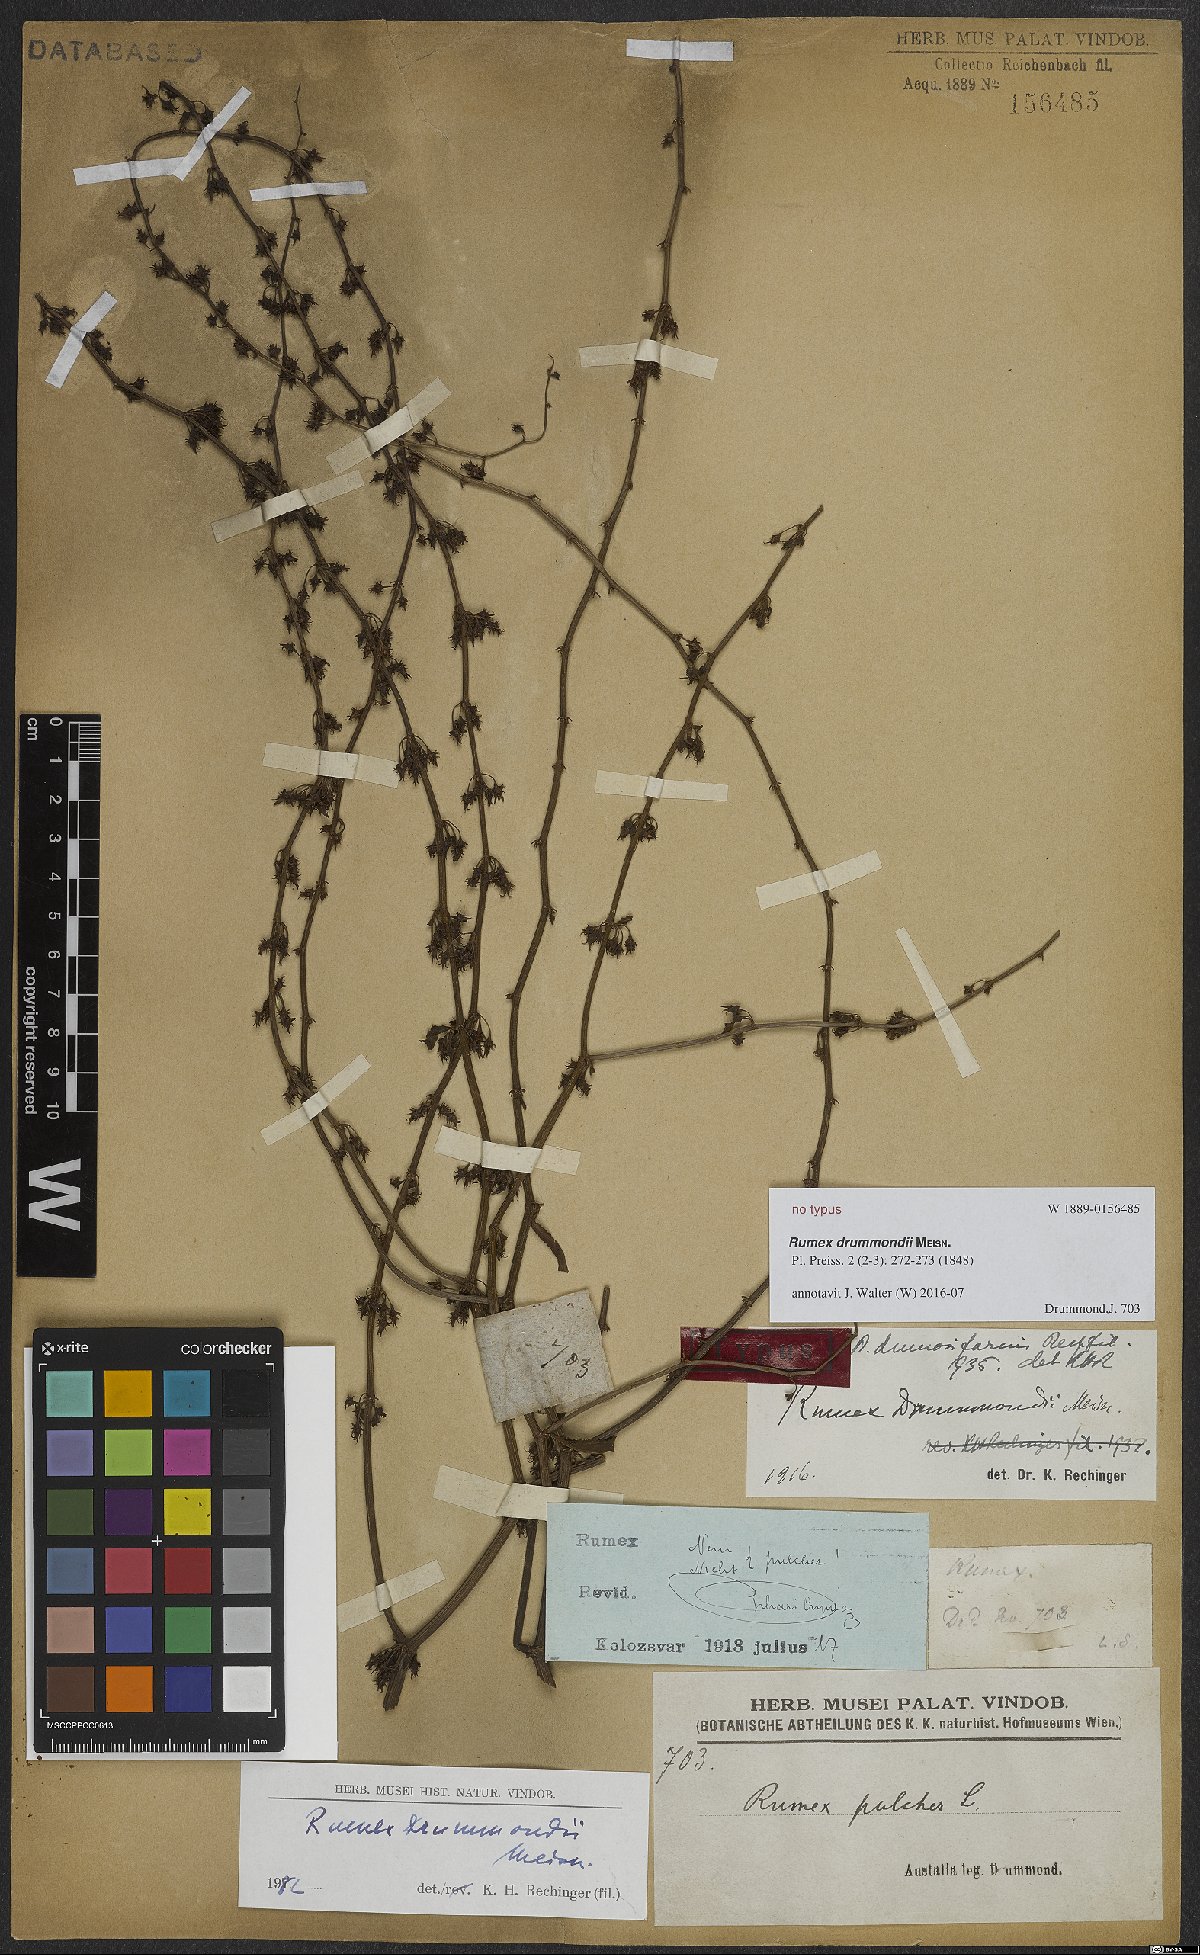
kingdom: Plantae
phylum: Tracheophyta
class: Magnoliopsida
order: Caryophyllales
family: Polygonaceae
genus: Rumex
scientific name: Rumex drummondii
